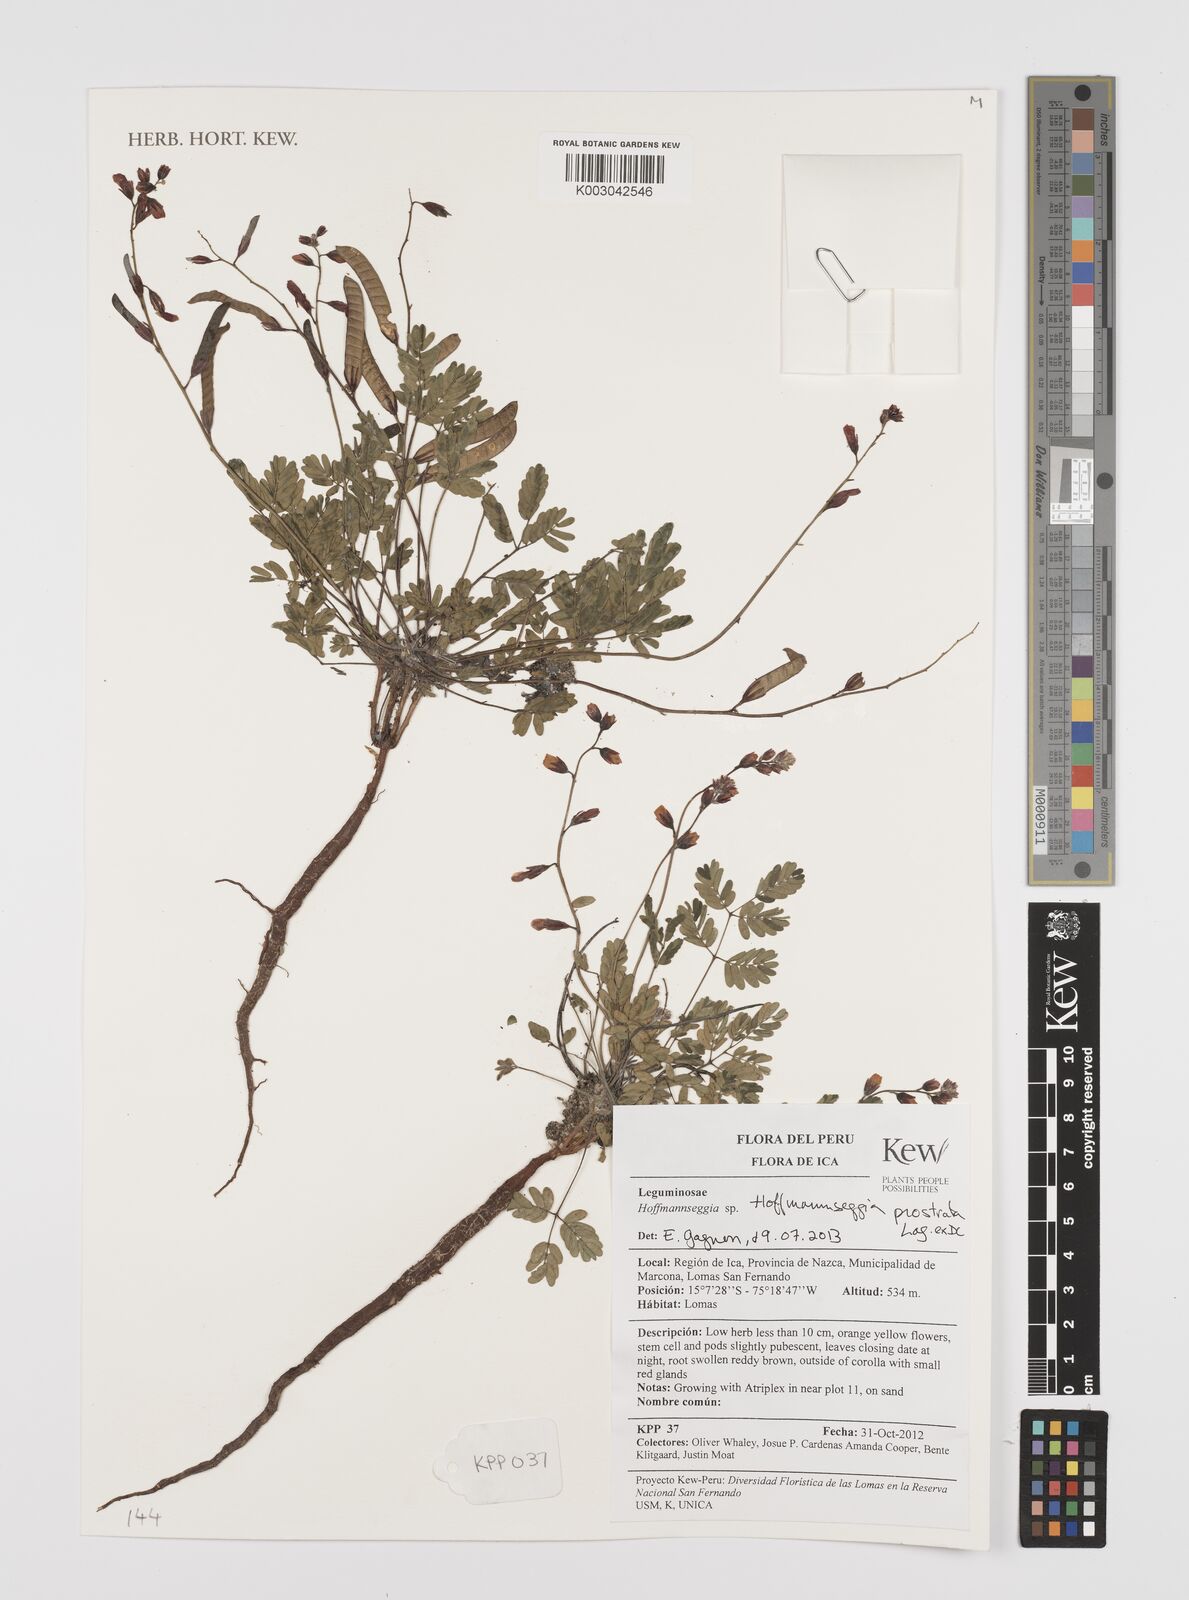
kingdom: Plantae
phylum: Tracheophyta
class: Magnoliopsida
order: Fabales
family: Fabaceae
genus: Hoffmannseggia
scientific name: Hoffmannseggia prostrata
